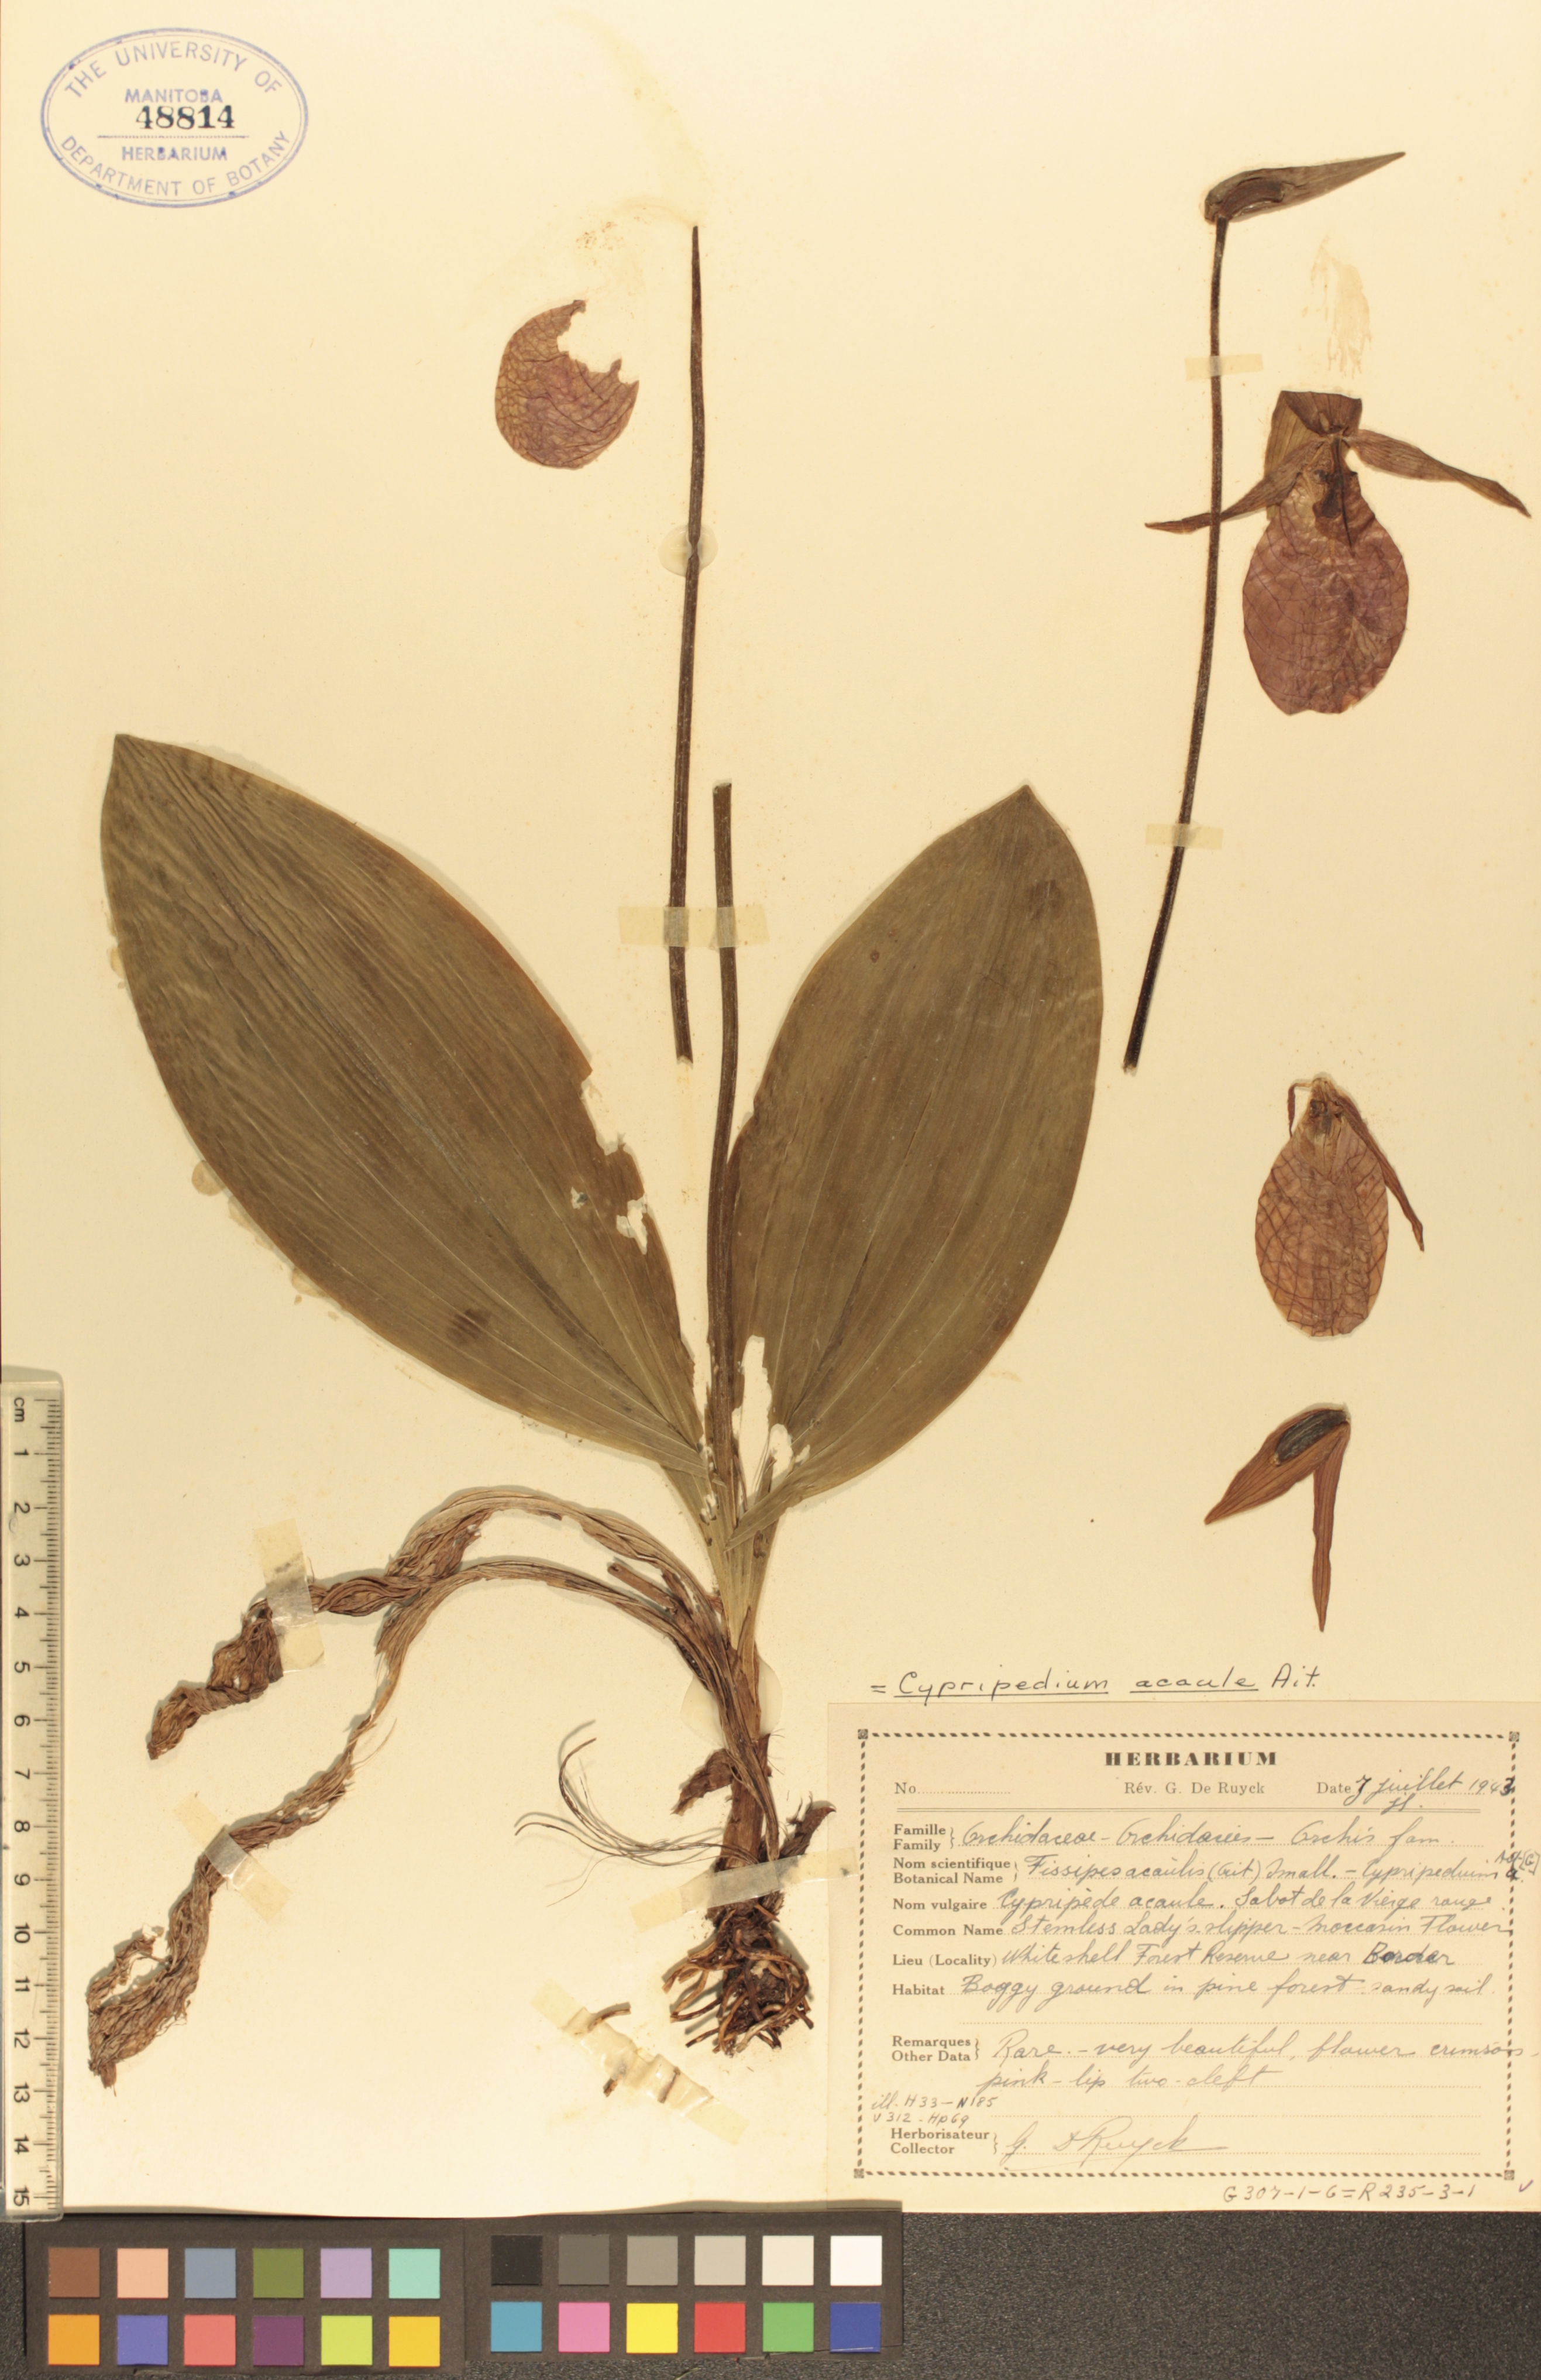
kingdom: Plantae
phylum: Tracheophyta
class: Liliopsida
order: Asparagales
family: Orchidaceae
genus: Cypripedium
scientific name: Cypripedium acaule
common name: Pink lady's-slipper
